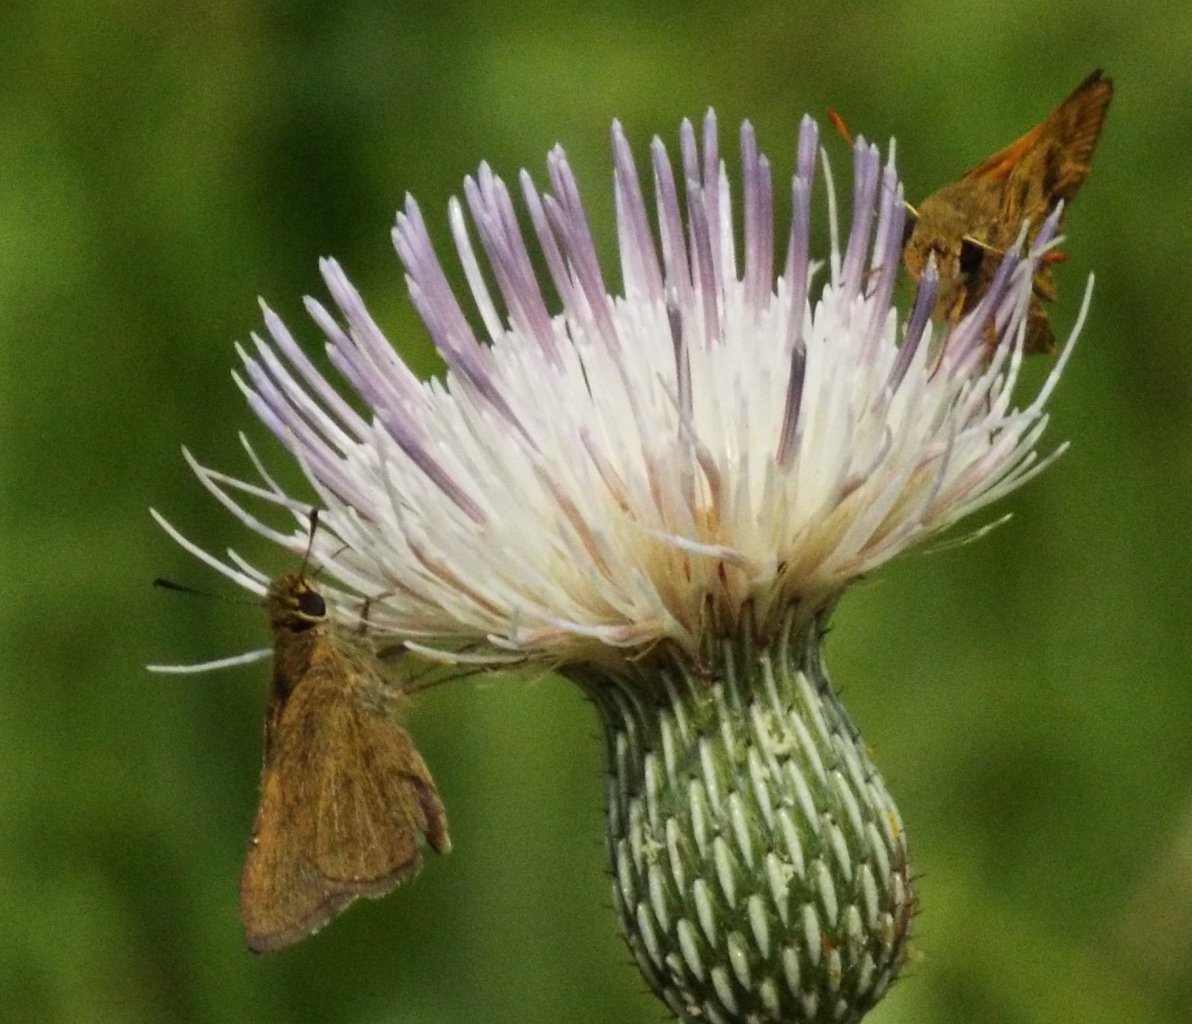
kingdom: Animalia
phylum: Arthropoda
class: Insecta
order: Lepidoptera
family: Hesperiidae
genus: Nastra
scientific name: Nastra lherminier
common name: Swarthy Skipper
